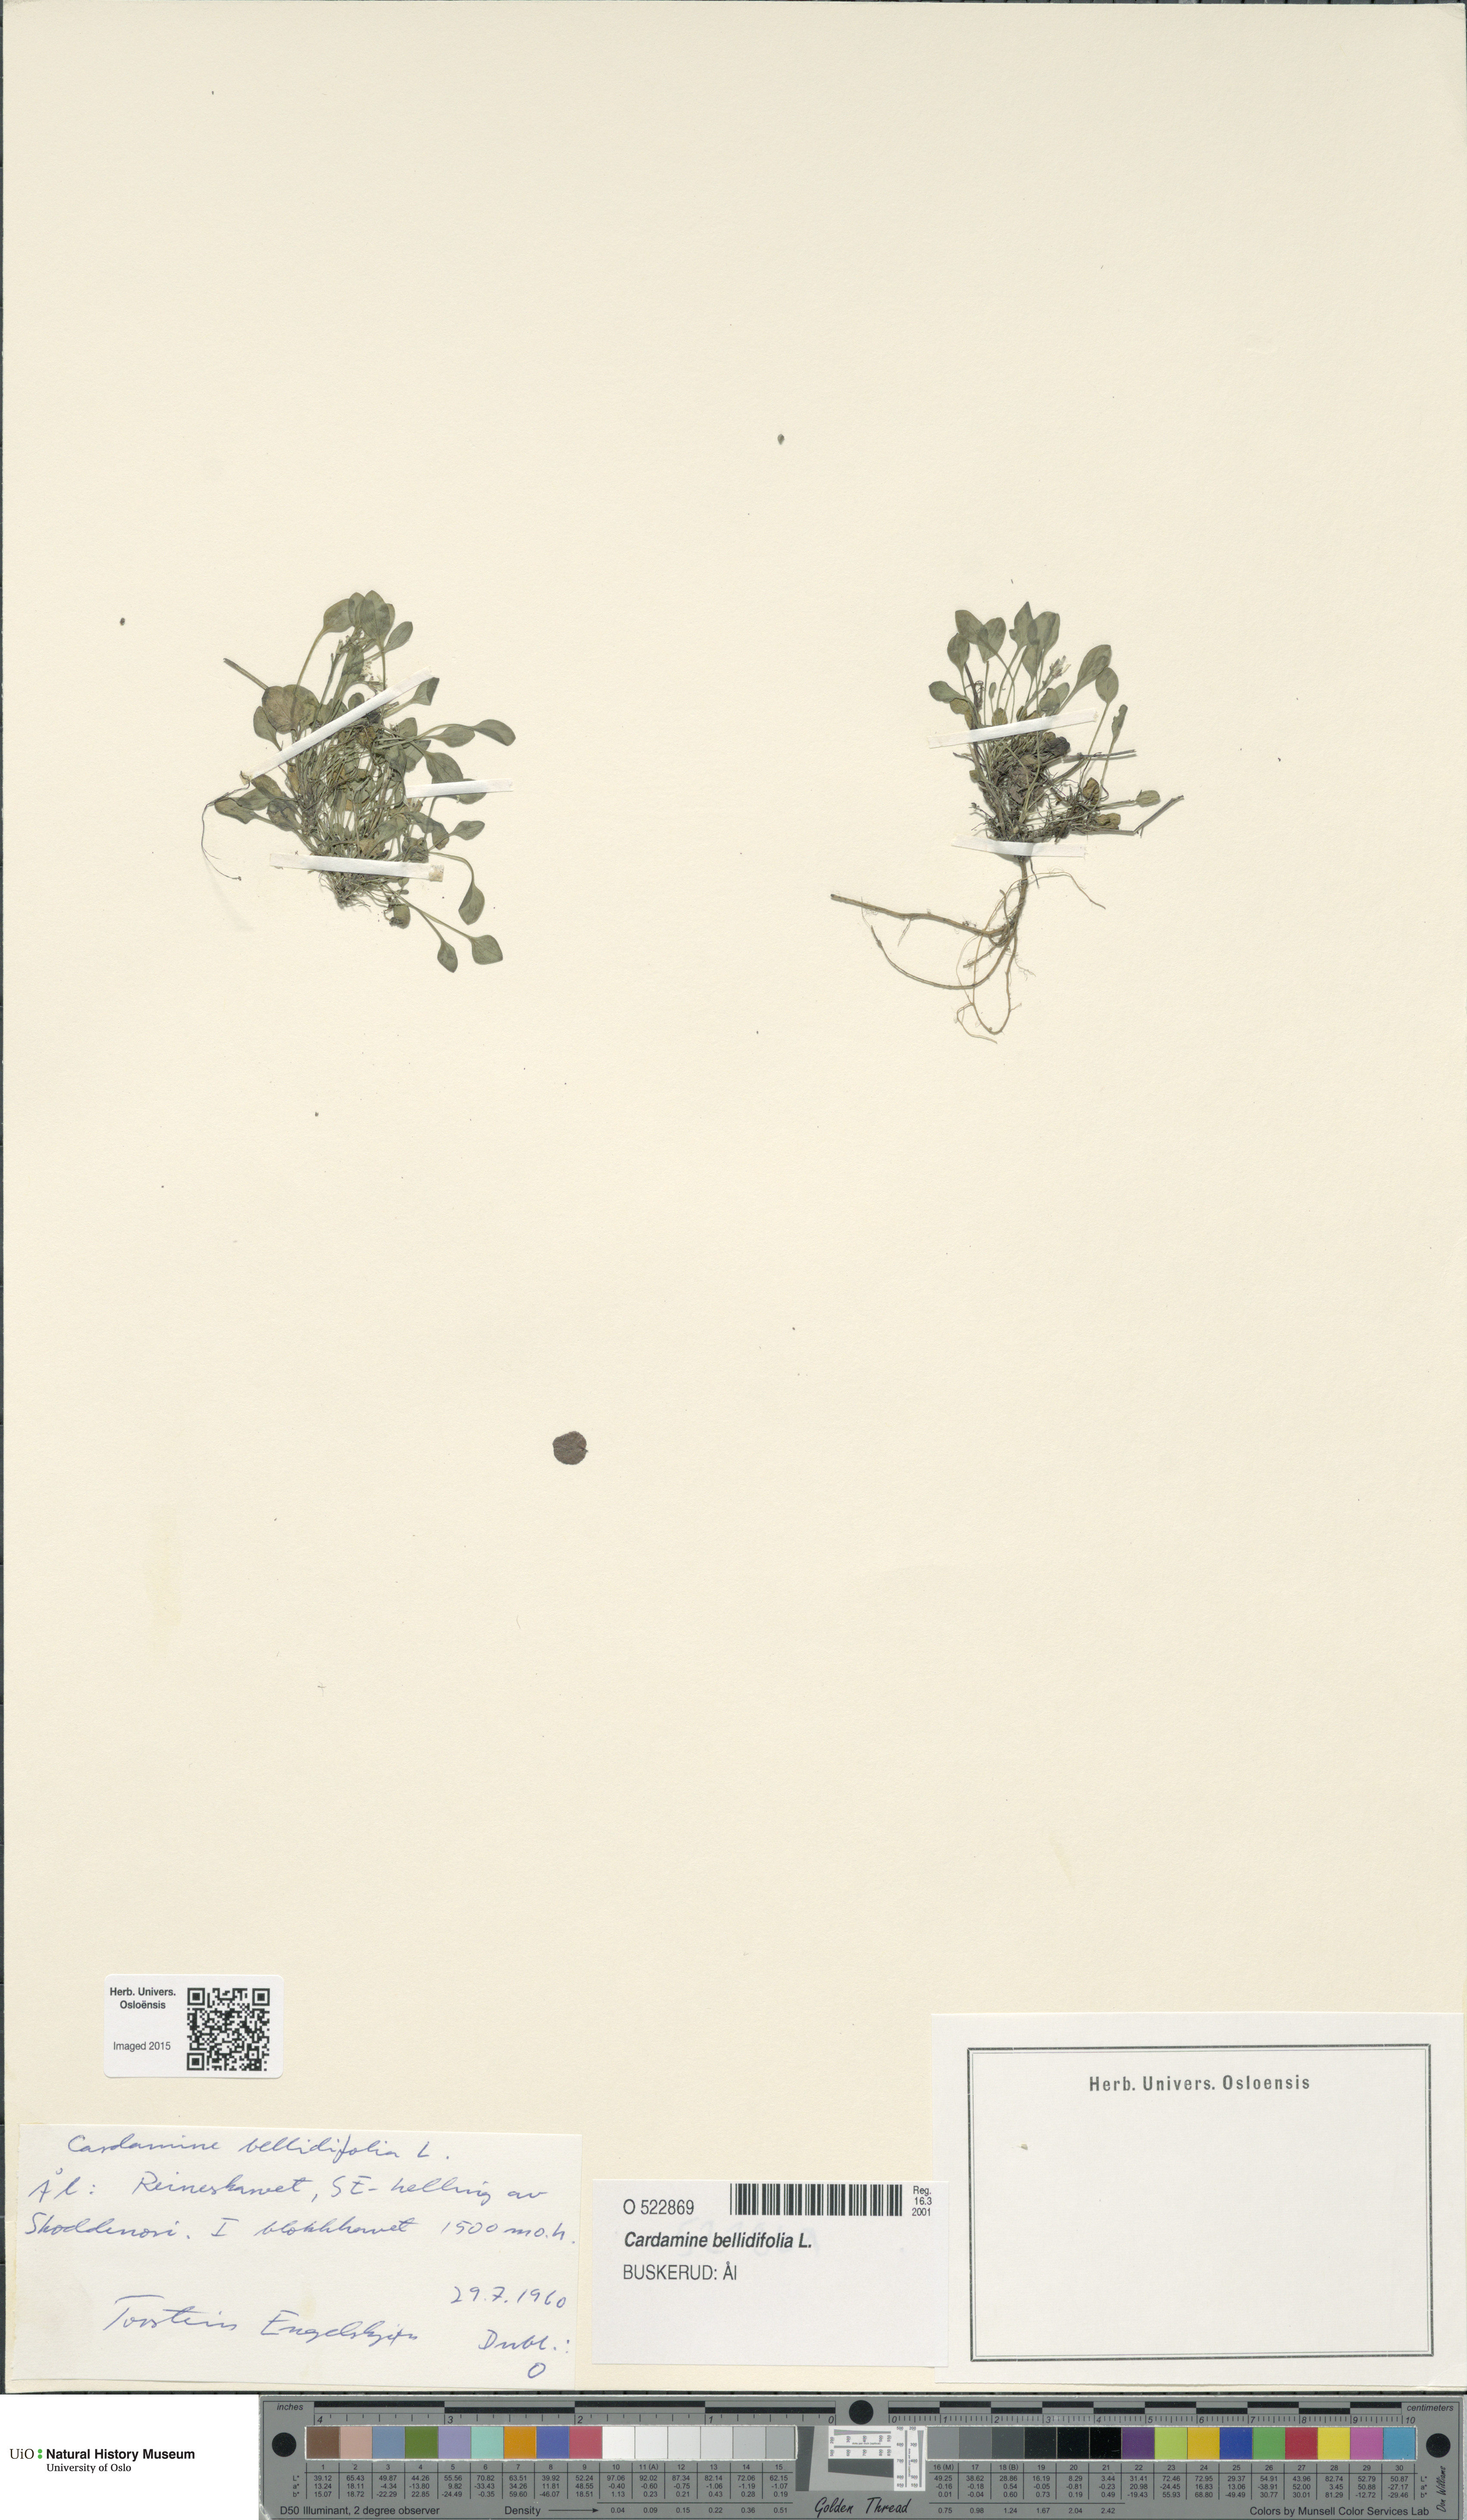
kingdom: Plantae
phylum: Tracheophyta
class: Magnoliopsida
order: Brassicales
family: Brassicaceae
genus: Cardamine
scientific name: Cardamine bellidifolia
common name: Alpine bittercress
